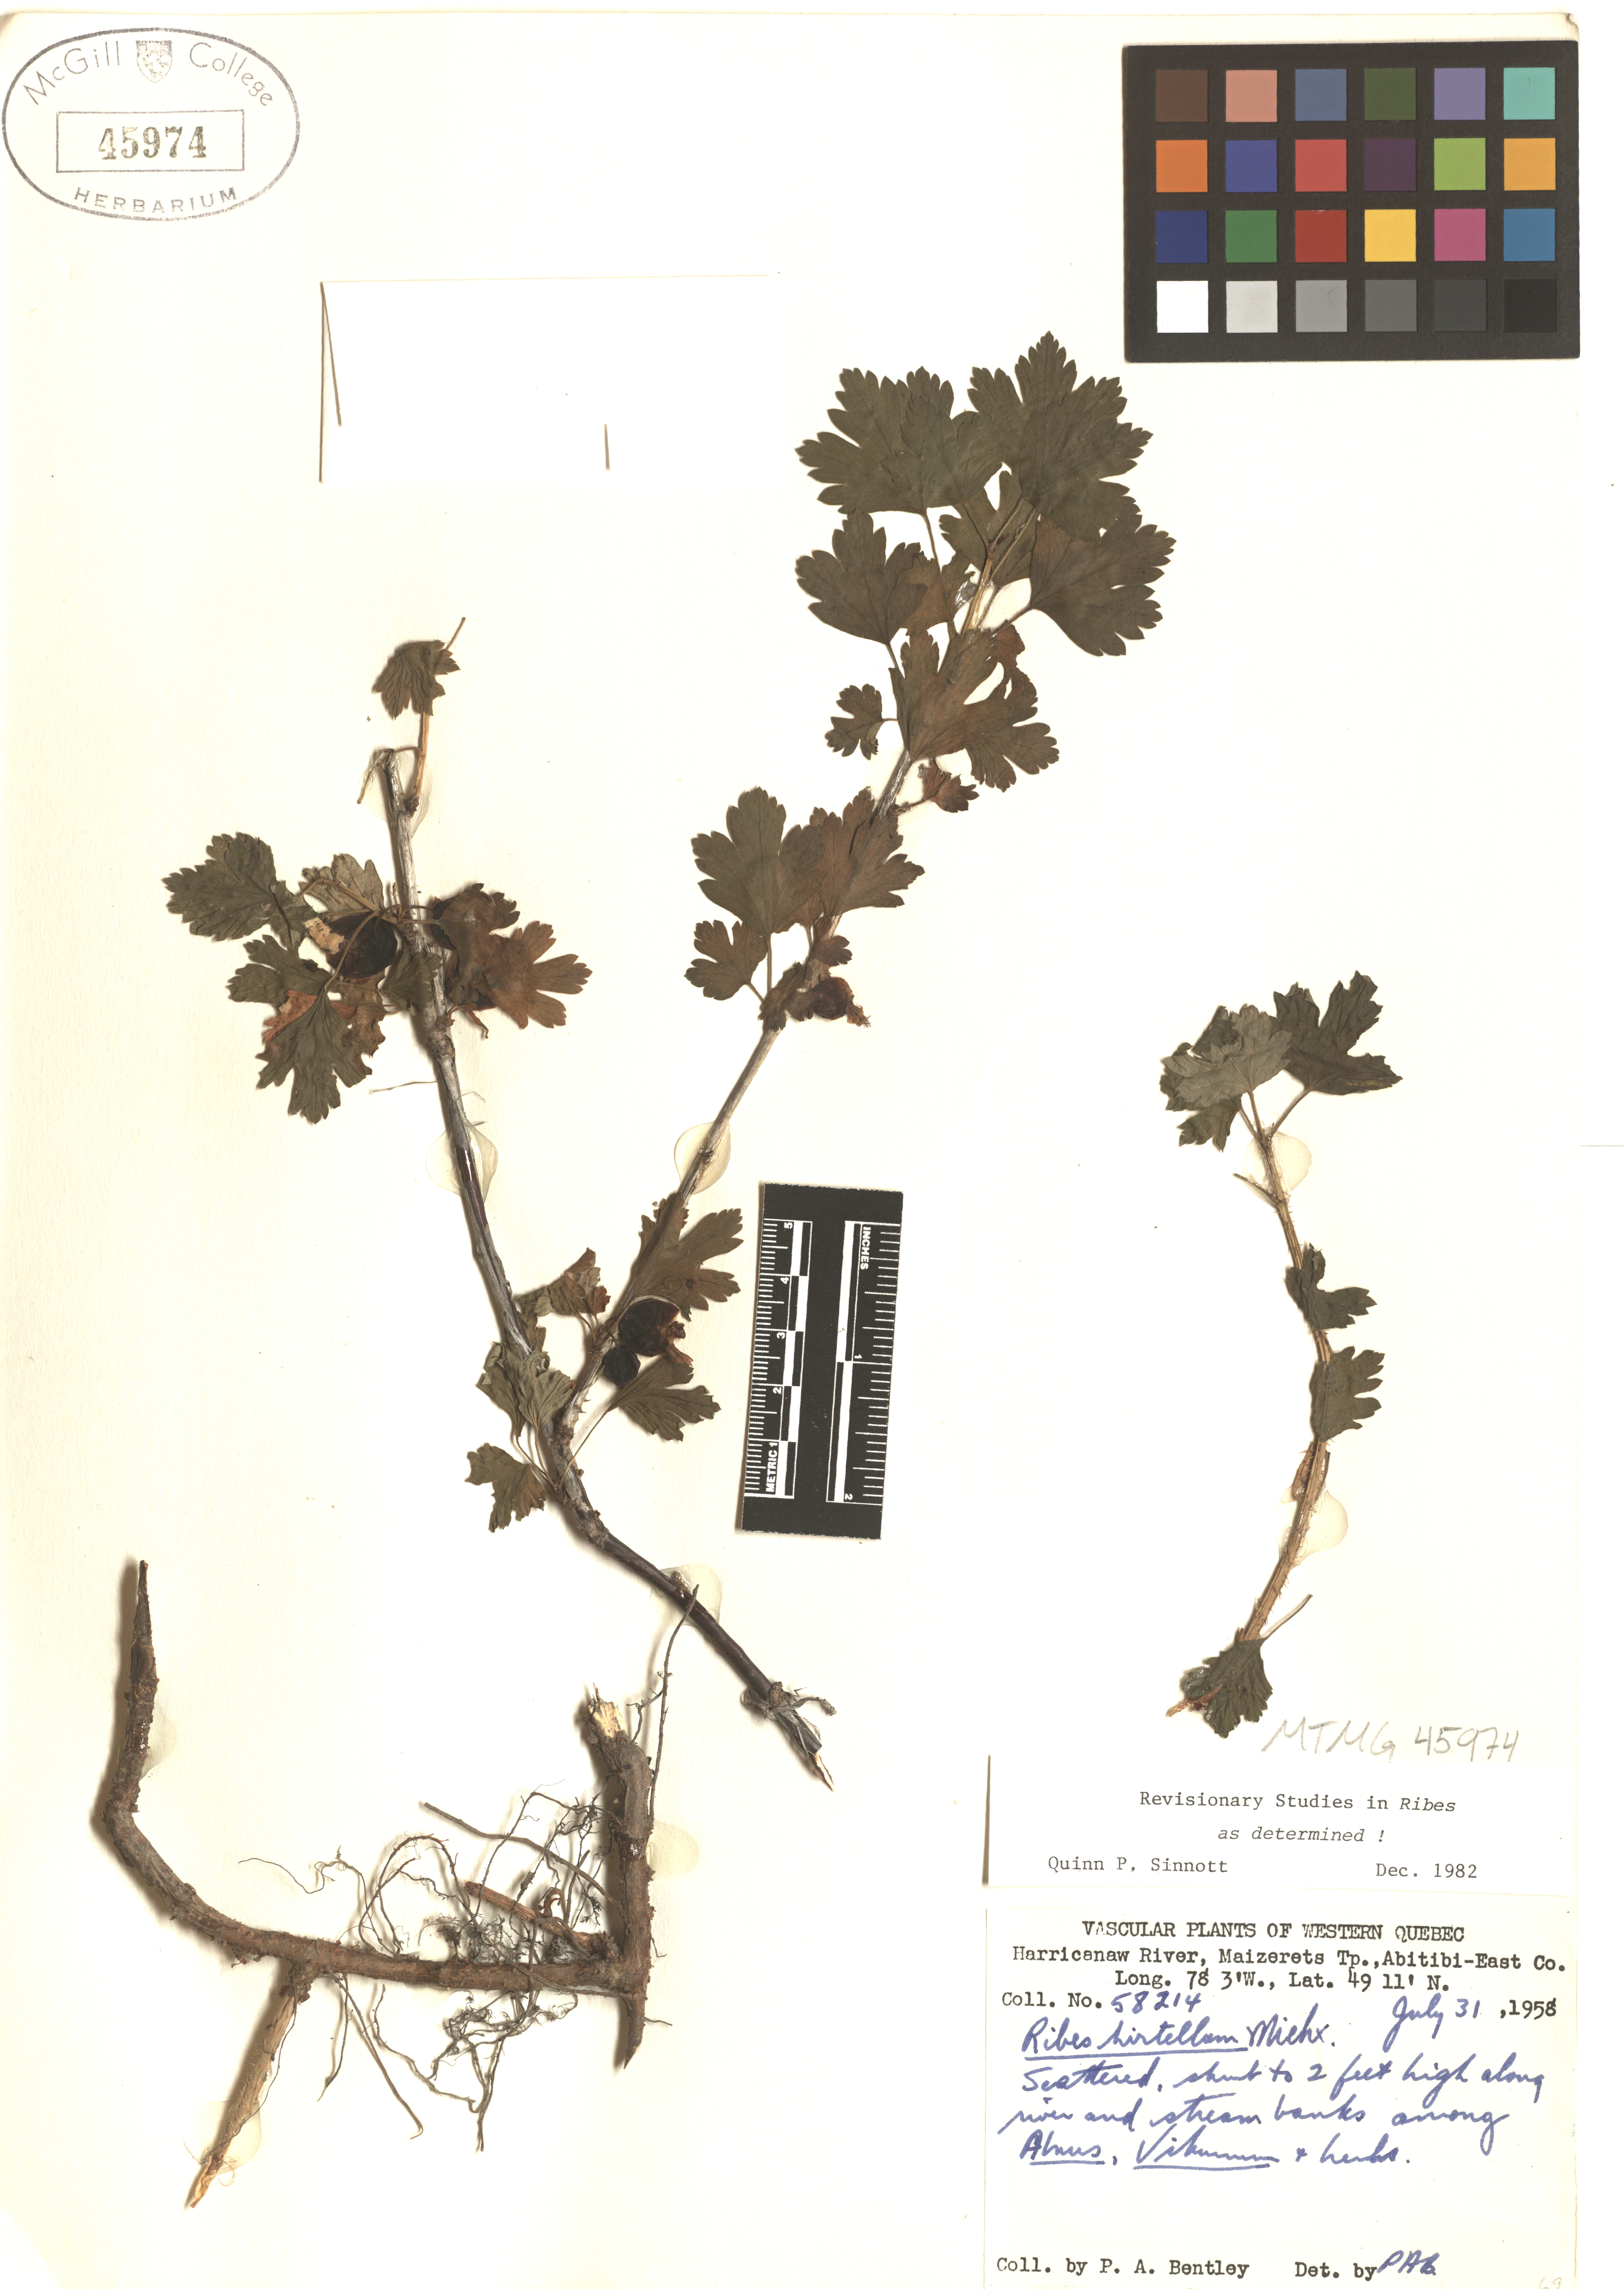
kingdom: Plantae
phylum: Tracheophyta
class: Magnoliopsida
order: Saxifragales
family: Grossulariaceae
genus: Ribes
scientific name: Ribes hirtellum
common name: Hairy gooseberry
